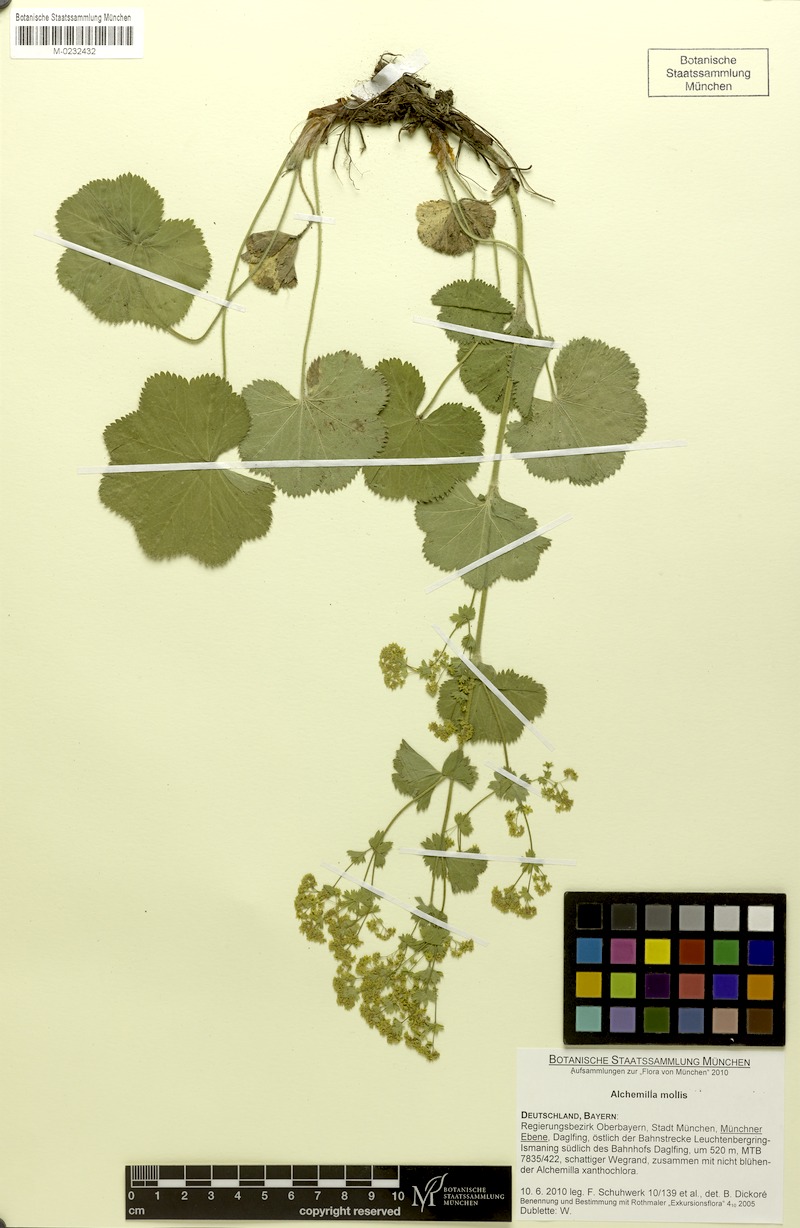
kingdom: Plantae
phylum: Tracheophyta
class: Magnoliopsida
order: Rosales
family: Rosaceae
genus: Alchemilla
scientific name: Alchemilla mollis
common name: Lady's-mantle
